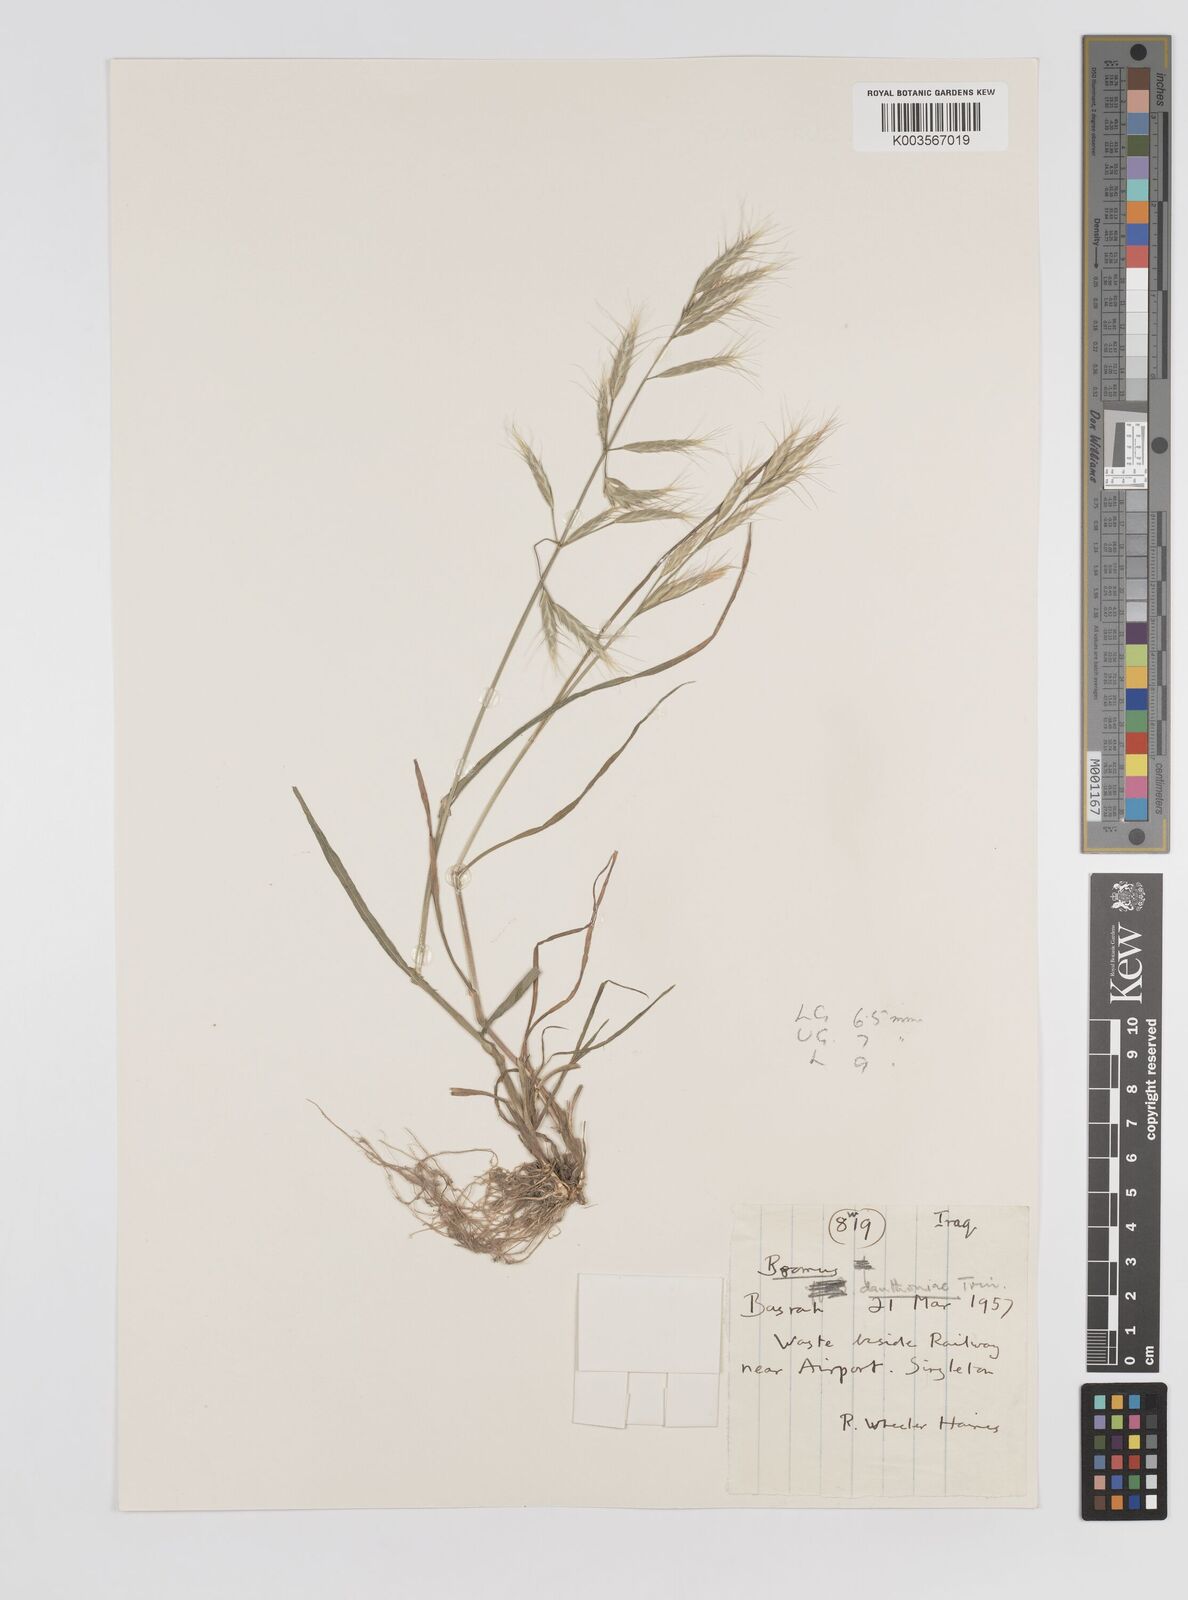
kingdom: Plantae
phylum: Tracheophyta
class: Liliopsida
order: Poales
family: Poaceae
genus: Bromus
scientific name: Bromus danthoniae
